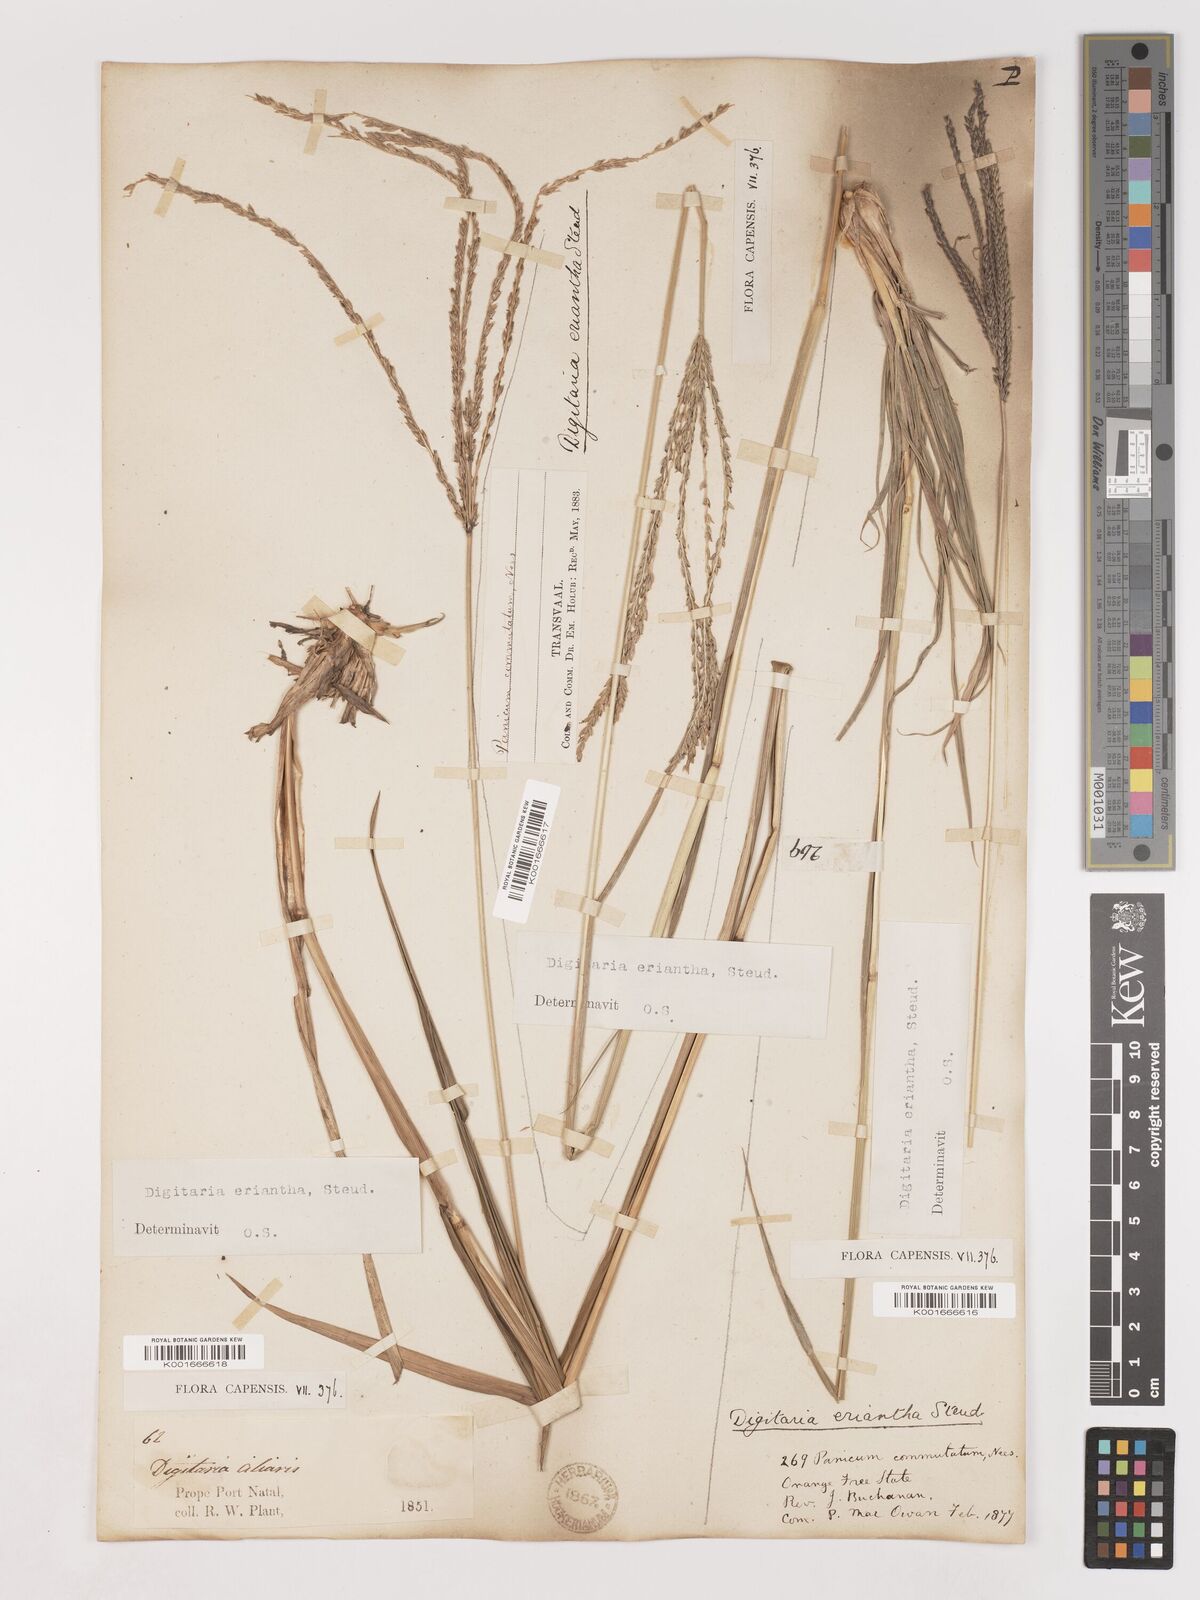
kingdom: Plantae
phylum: Tracheophyta
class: Liliopsida
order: Poales
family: Poaceae
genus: Digitaria
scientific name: Digitaria eriantha
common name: Digitgrass
